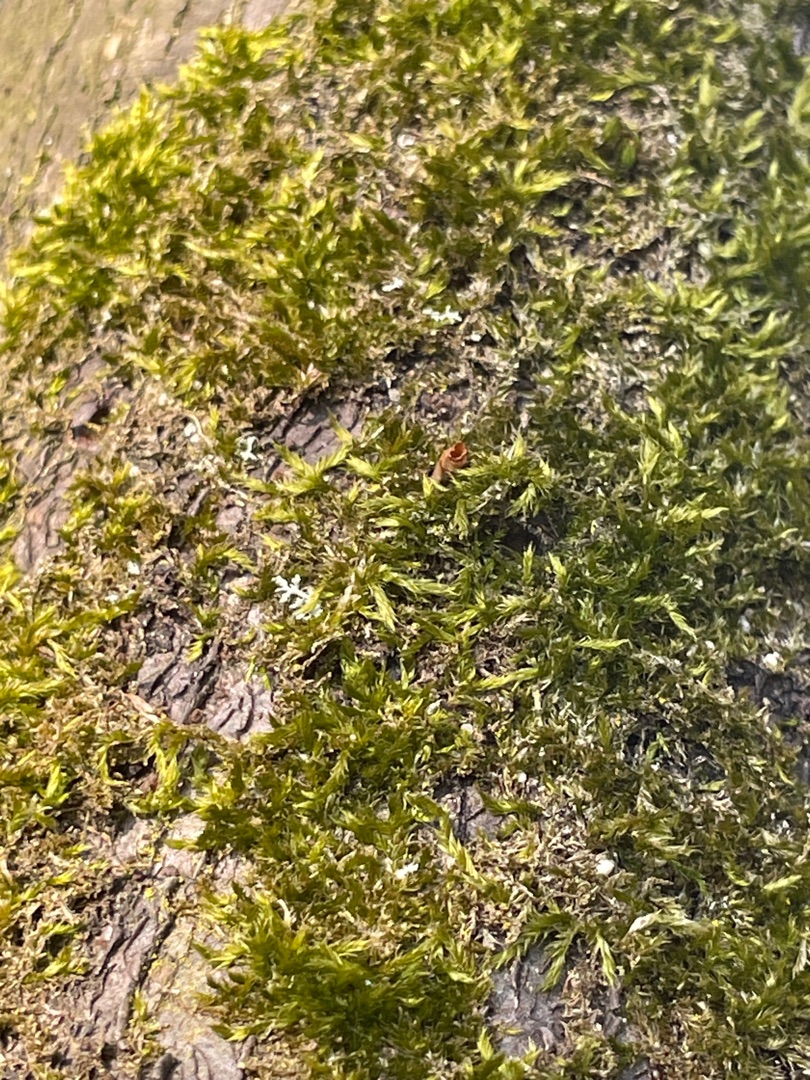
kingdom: Plantae
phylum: Bryophyta
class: Bryopsida
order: Hypnales
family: Hypnaceae
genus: Hypnum
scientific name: Hypnum
